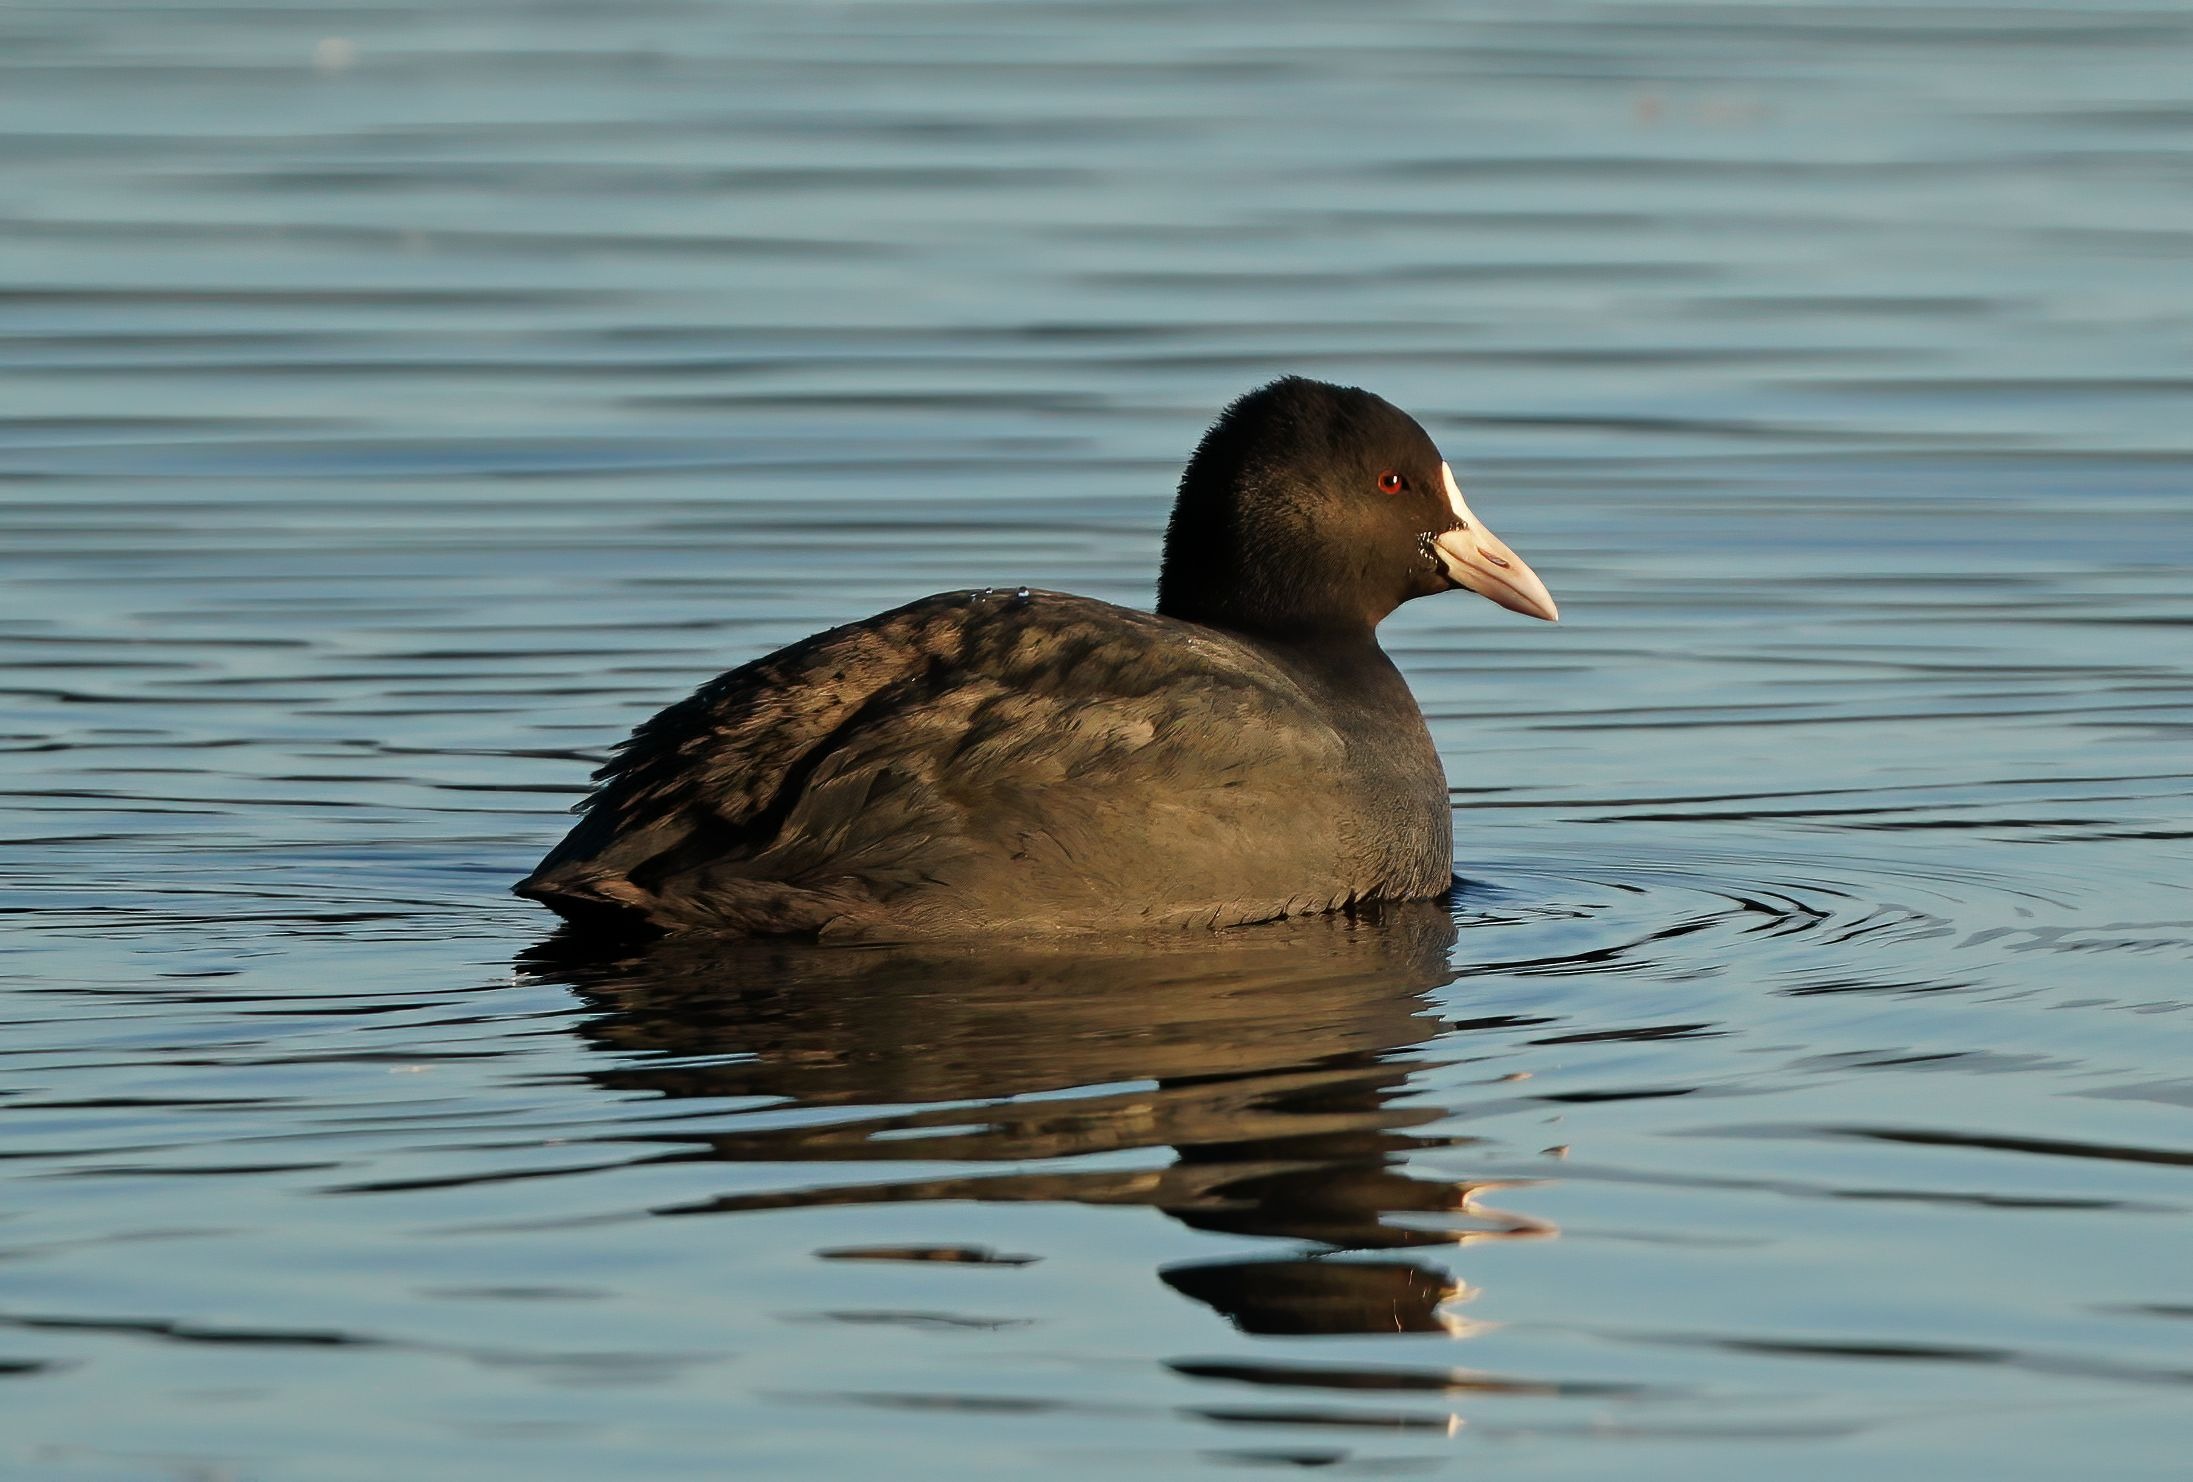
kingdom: Animalia
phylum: Chordata
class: Aves
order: Gruiformes
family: Rallidae
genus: Fulica
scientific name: Fulica atra
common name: Blishøne
